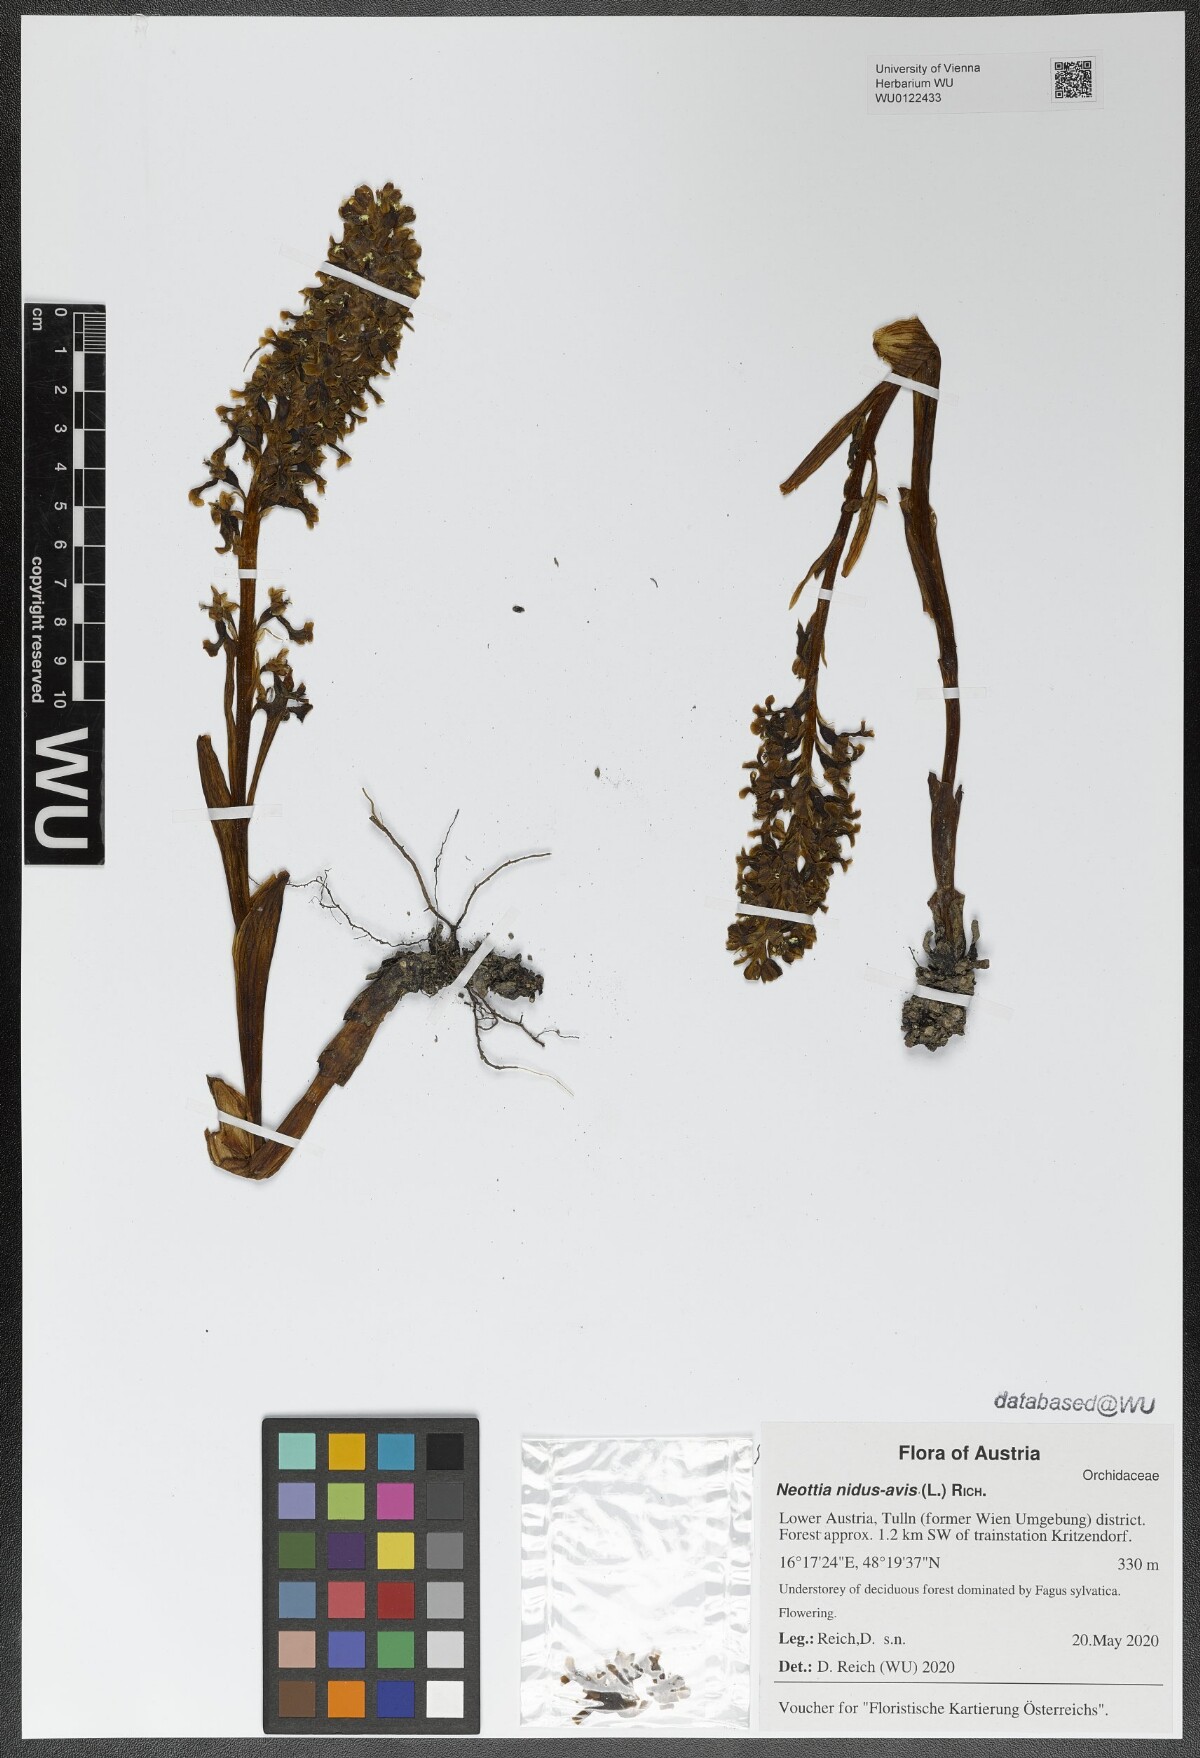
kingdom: Plantae
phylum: Tracheophyta
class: Liliopsida
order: Asparagales
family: Orchidaceae
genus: Neottia
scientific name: Neottia nidus-avis
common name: Bird's-nest orchid
